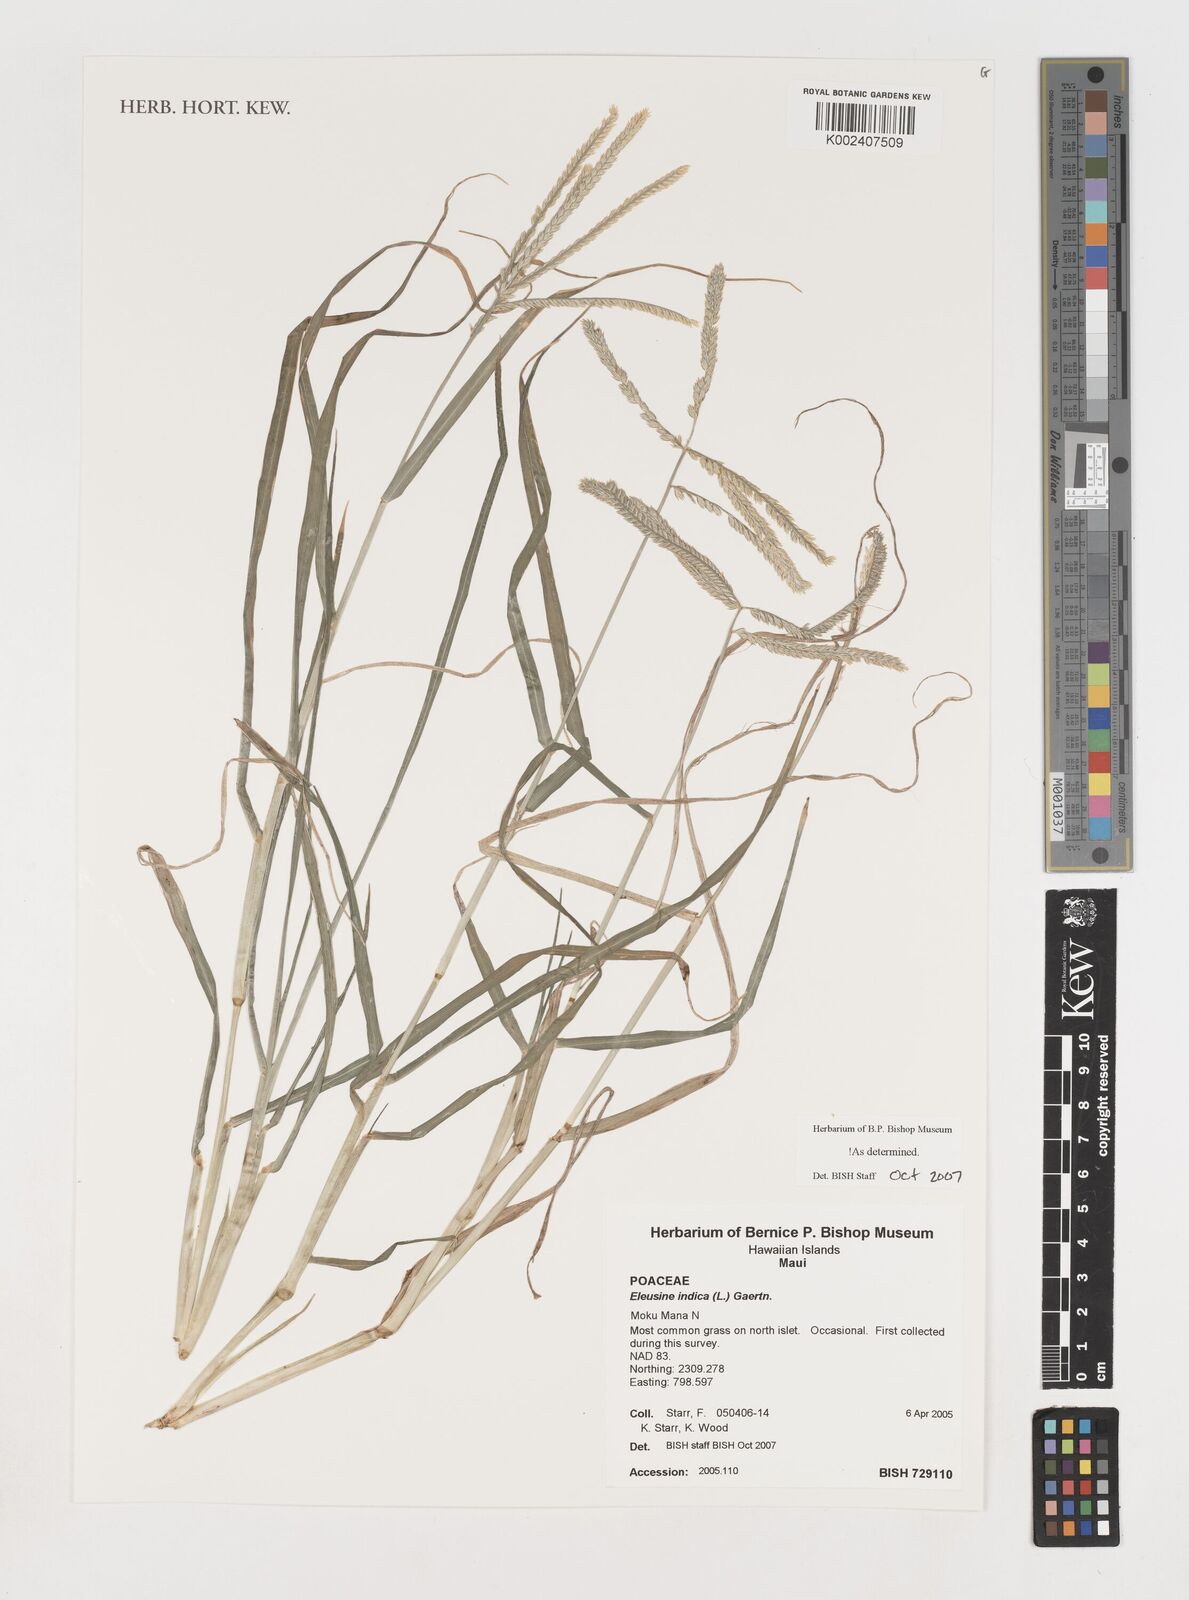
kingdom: Plantae
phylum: Tracheophyta
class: Liliopsida
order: Poales
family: Poaceae
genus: Eleusine
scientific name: Eleusine indica
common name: Yard-grass
